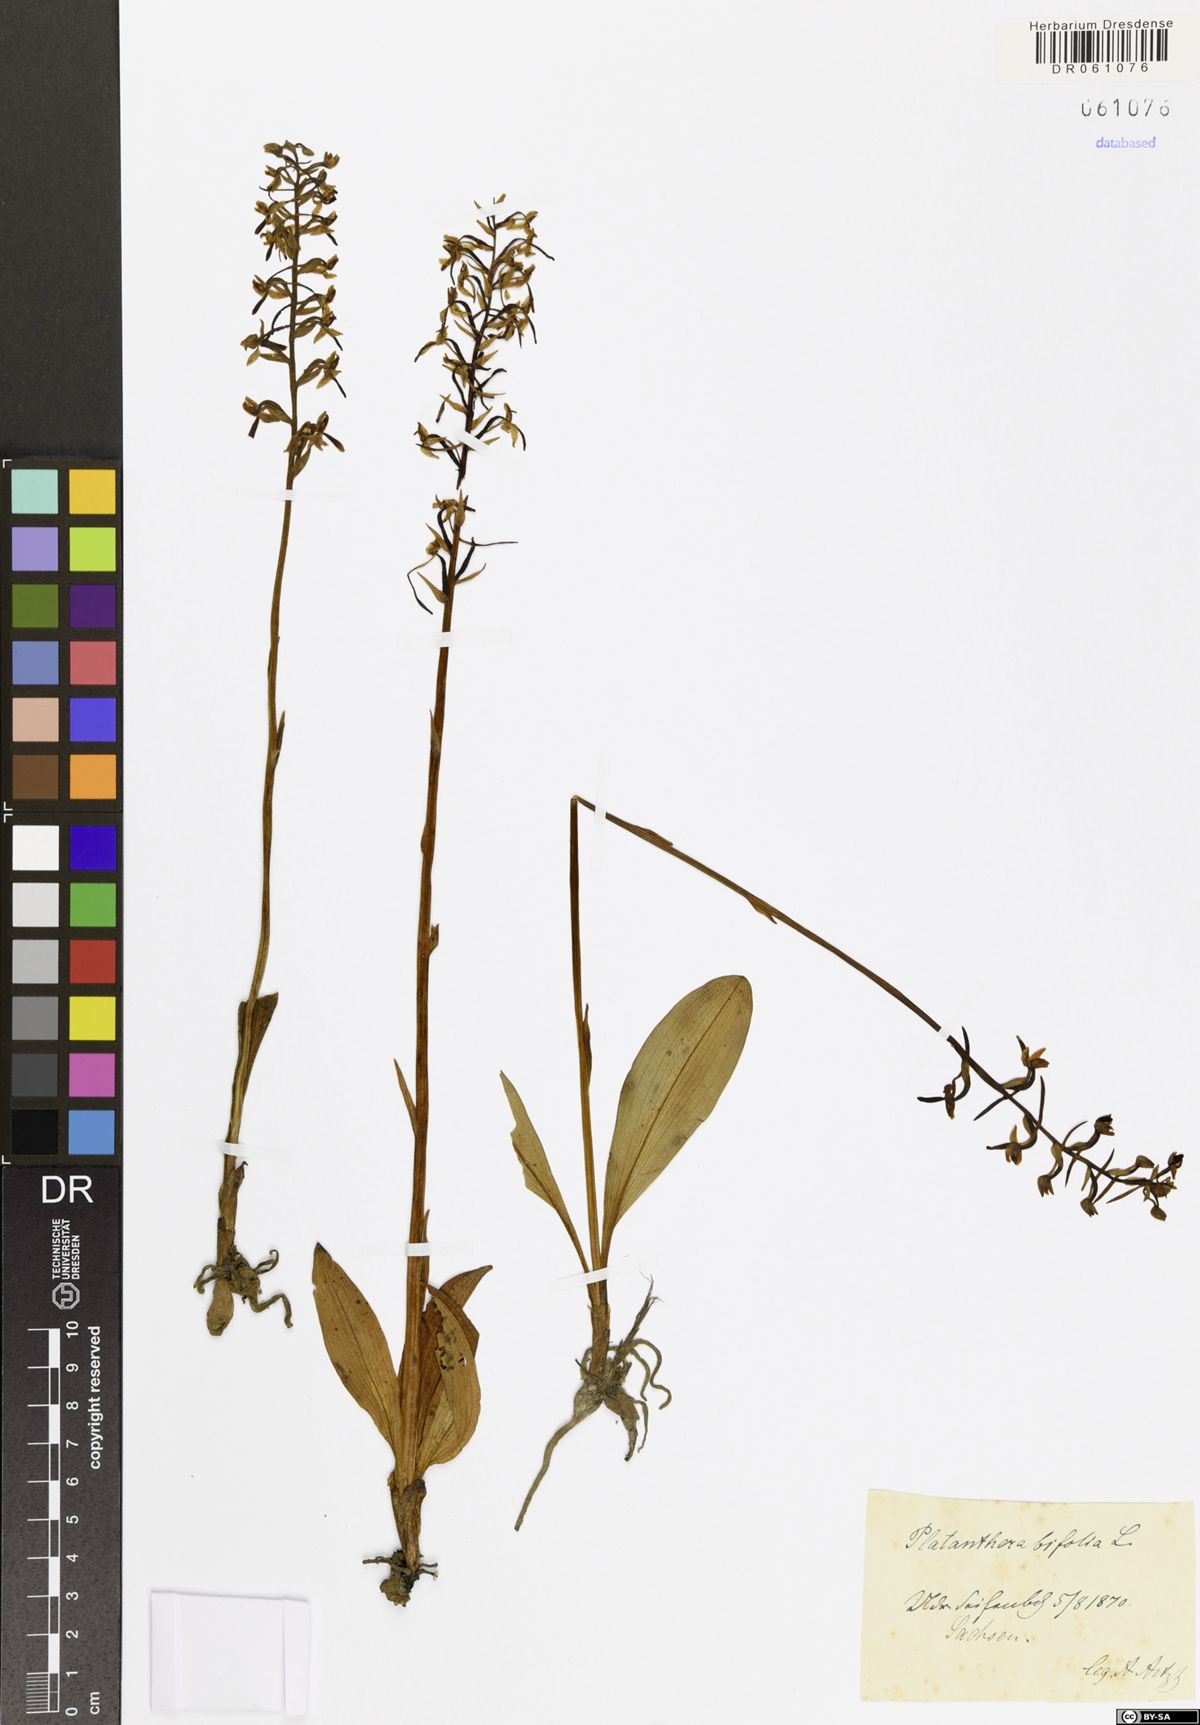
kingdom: Plantae
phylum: Tracheophyta
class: Liliopsida
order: Asparagales
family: Orchidaceae
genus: Platanthera
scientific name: Platanthera bifolia
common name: Lesser butterfly-orchid
